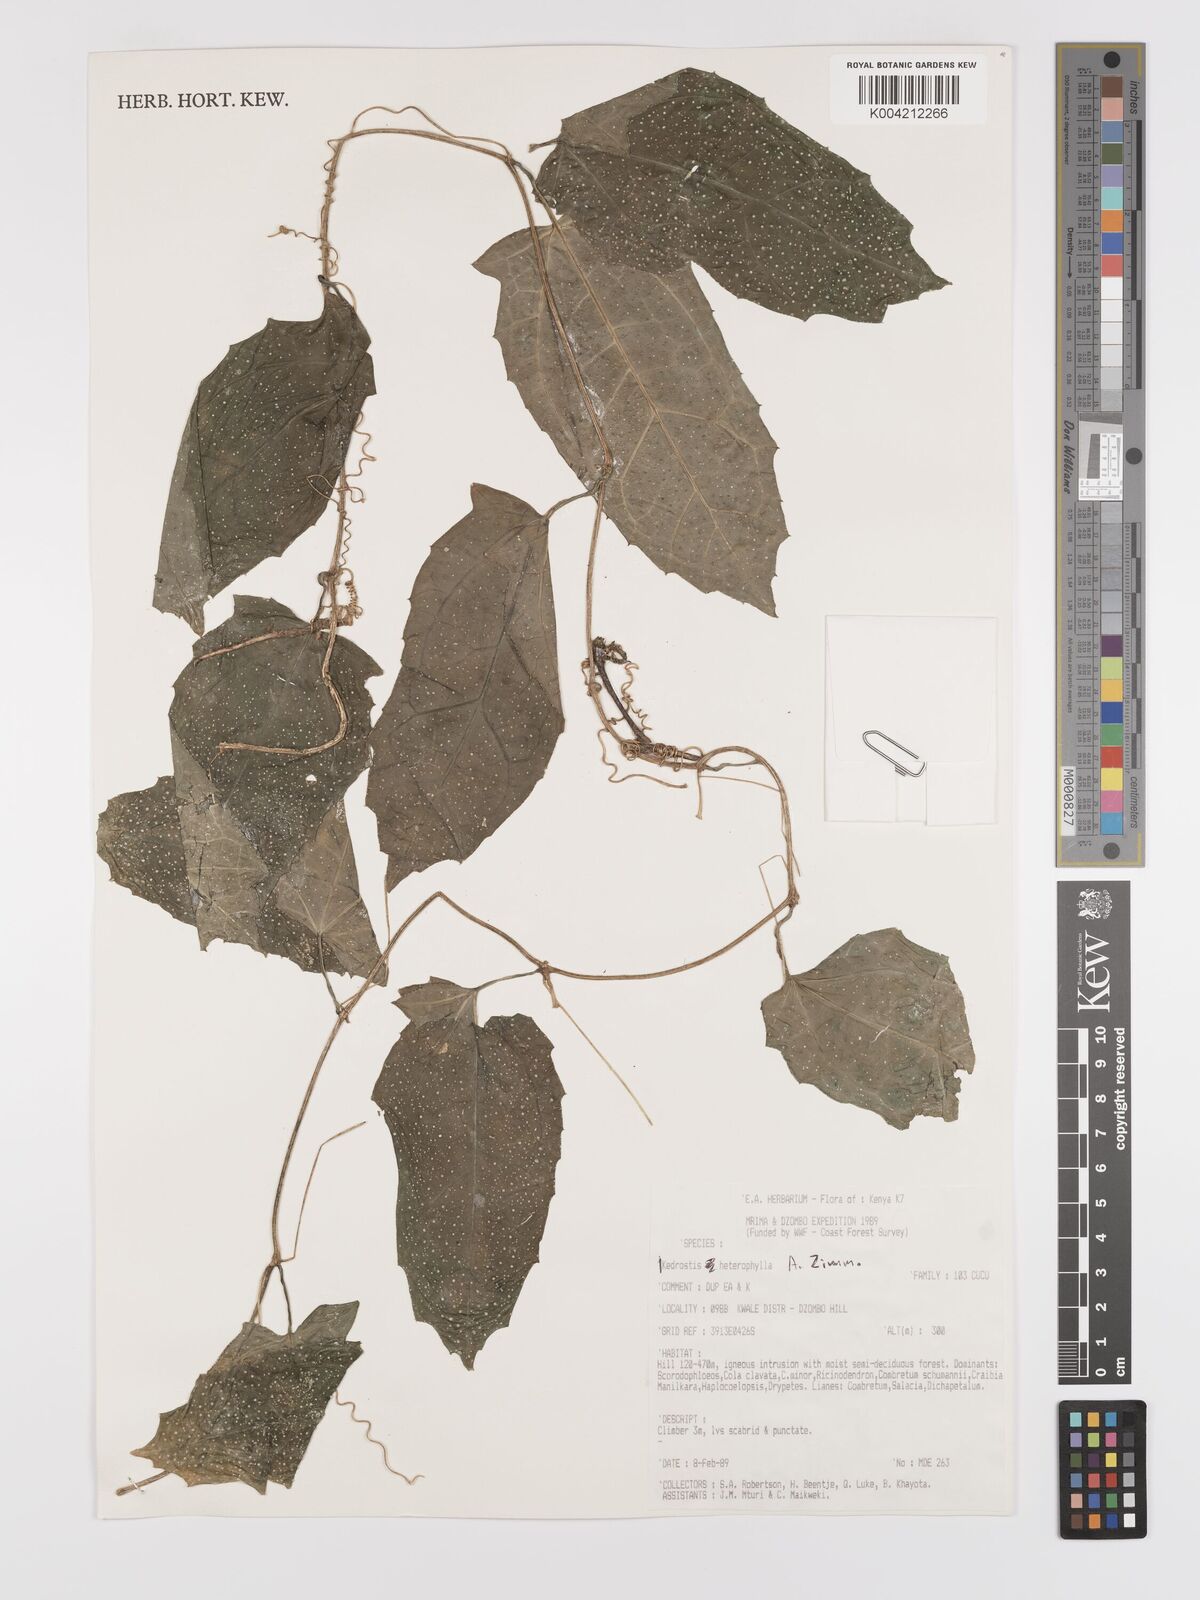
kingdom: Plantae
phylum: Tracheophyta
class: Magnoliopsida
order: Cucurbitales
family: Cucurbitaceae
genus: Kedrostis
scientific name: Kedrostis heterophylla
